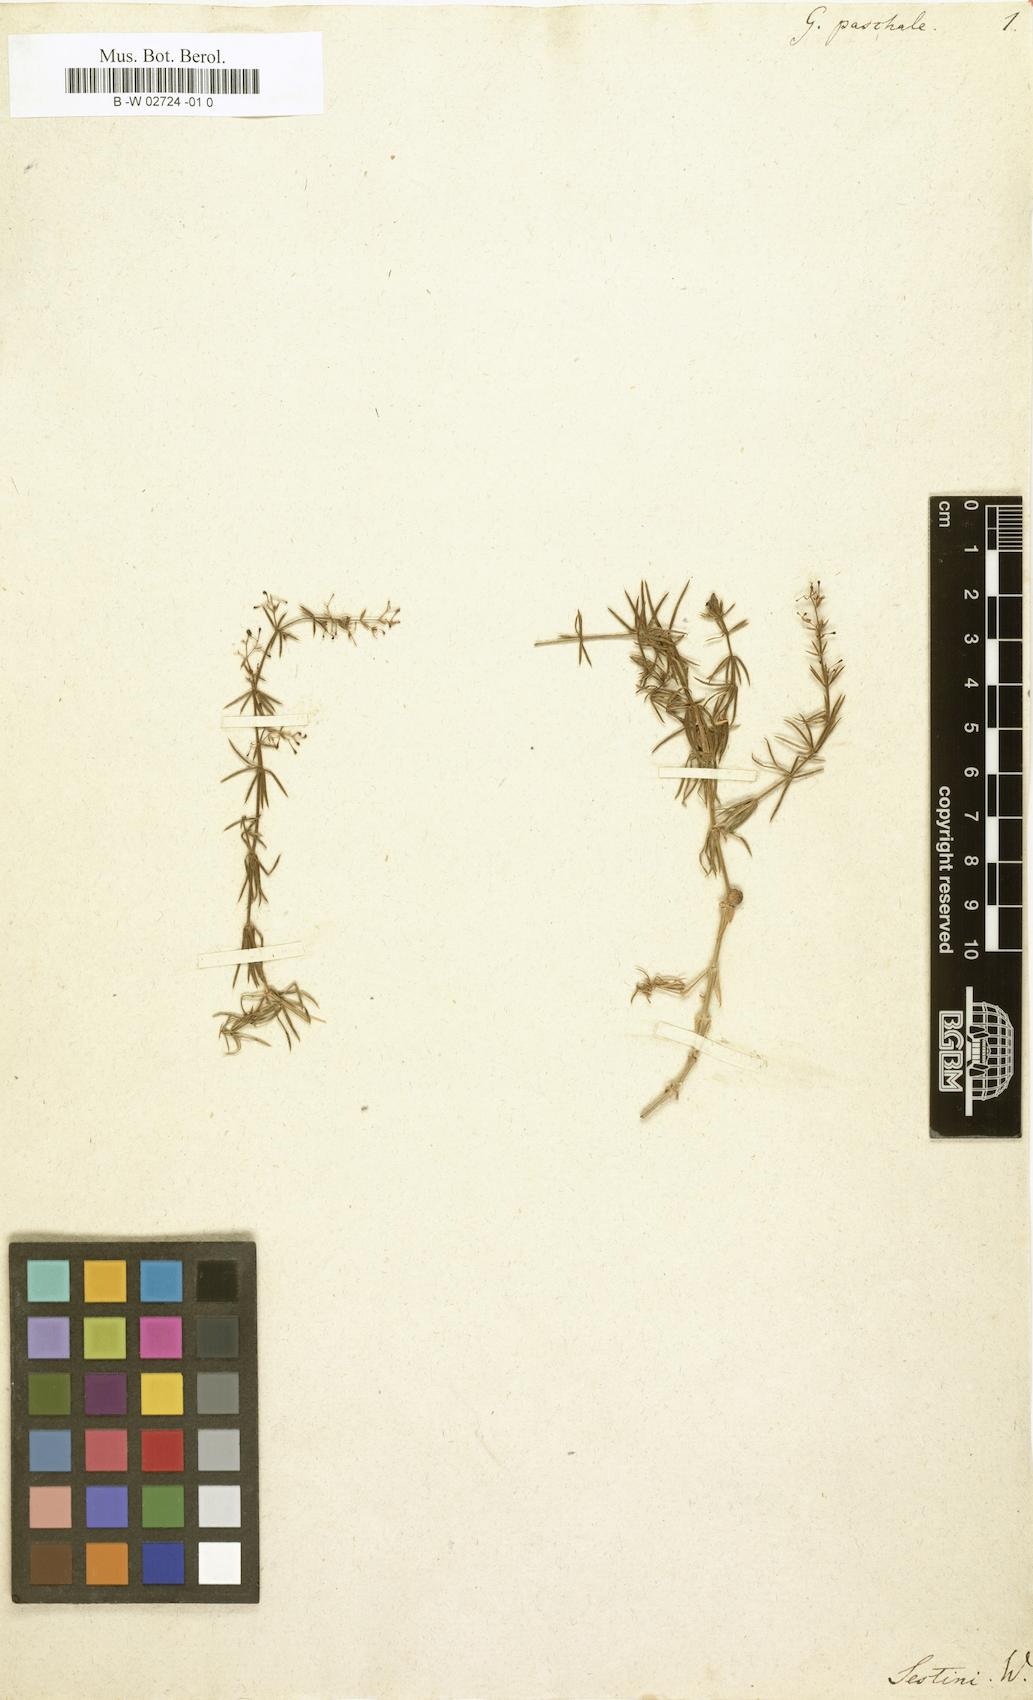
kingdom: Plantae
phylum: Tracheophyta
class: Magnoliopsida
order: Gentianales
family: Rubiaceae
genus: Galium
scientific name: Galium paschale
